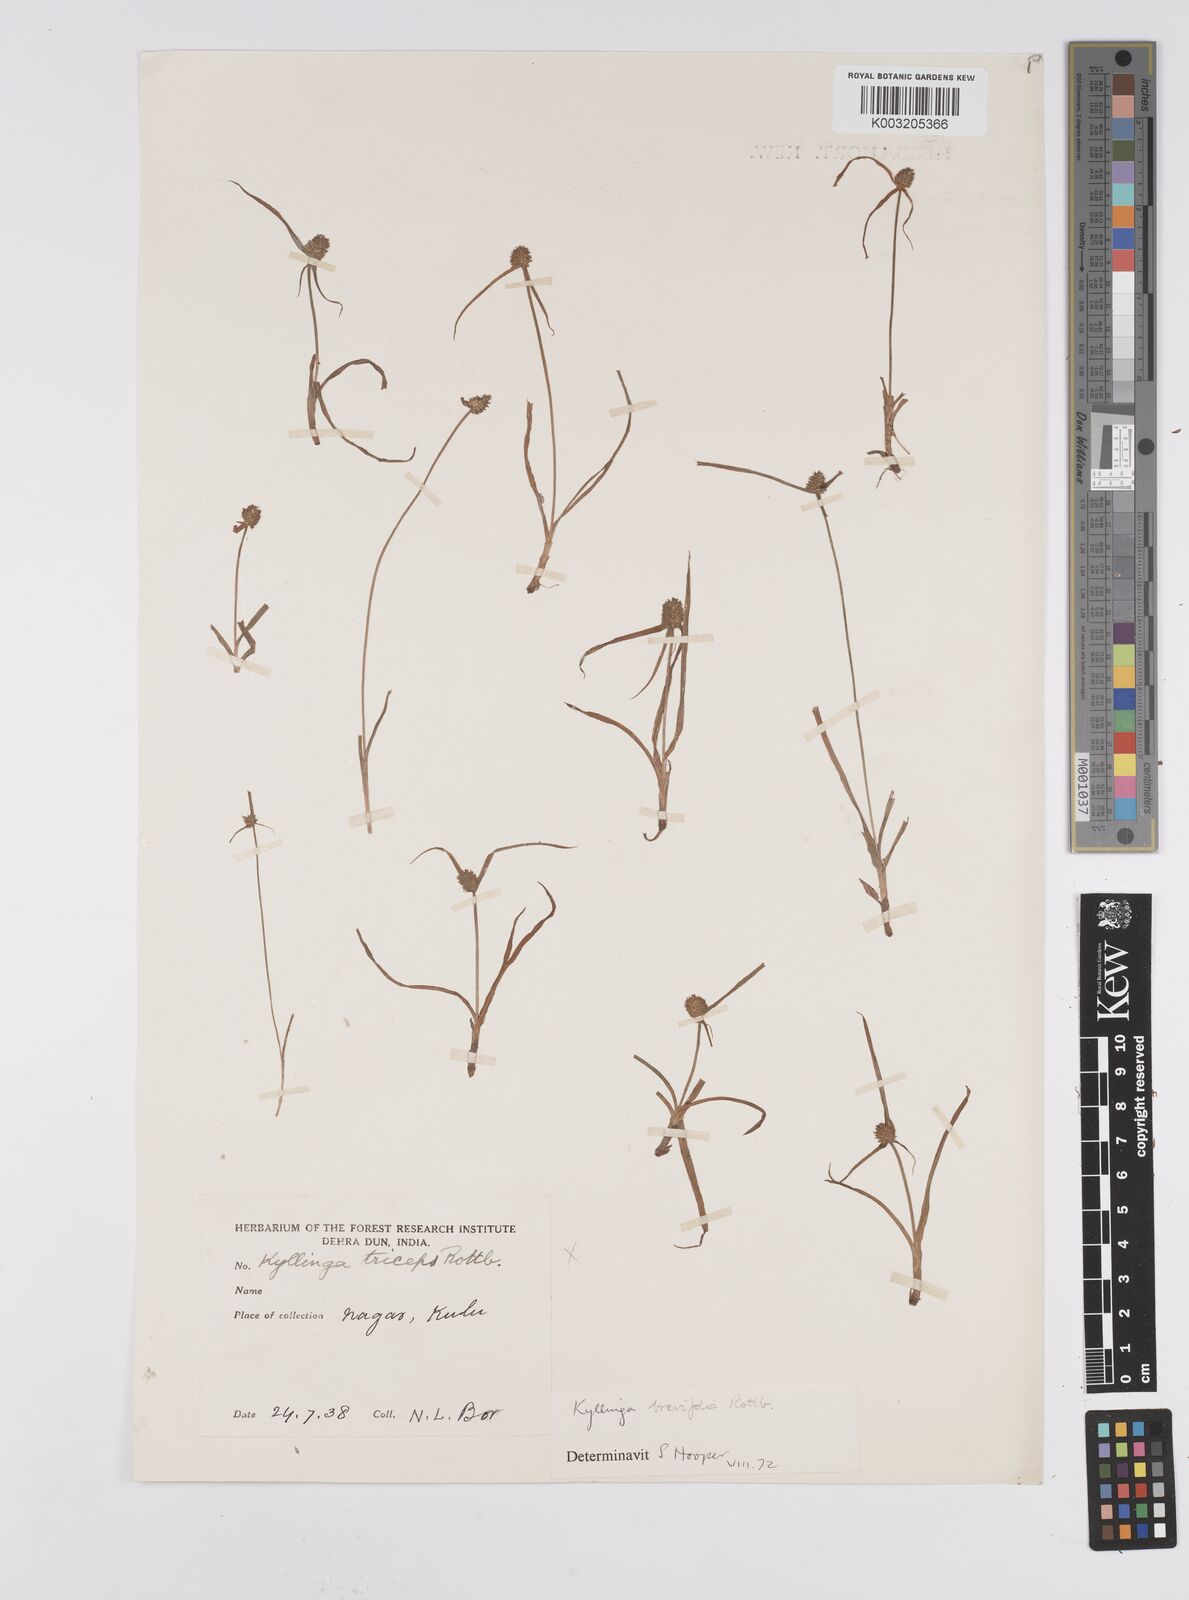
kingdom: Plantae
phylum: Tracheophyta
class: Liliopsida
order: Poales
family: Cyperaceae
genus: Cyperus
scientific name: Cyperus brevifolius
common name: Globe kyllinga
